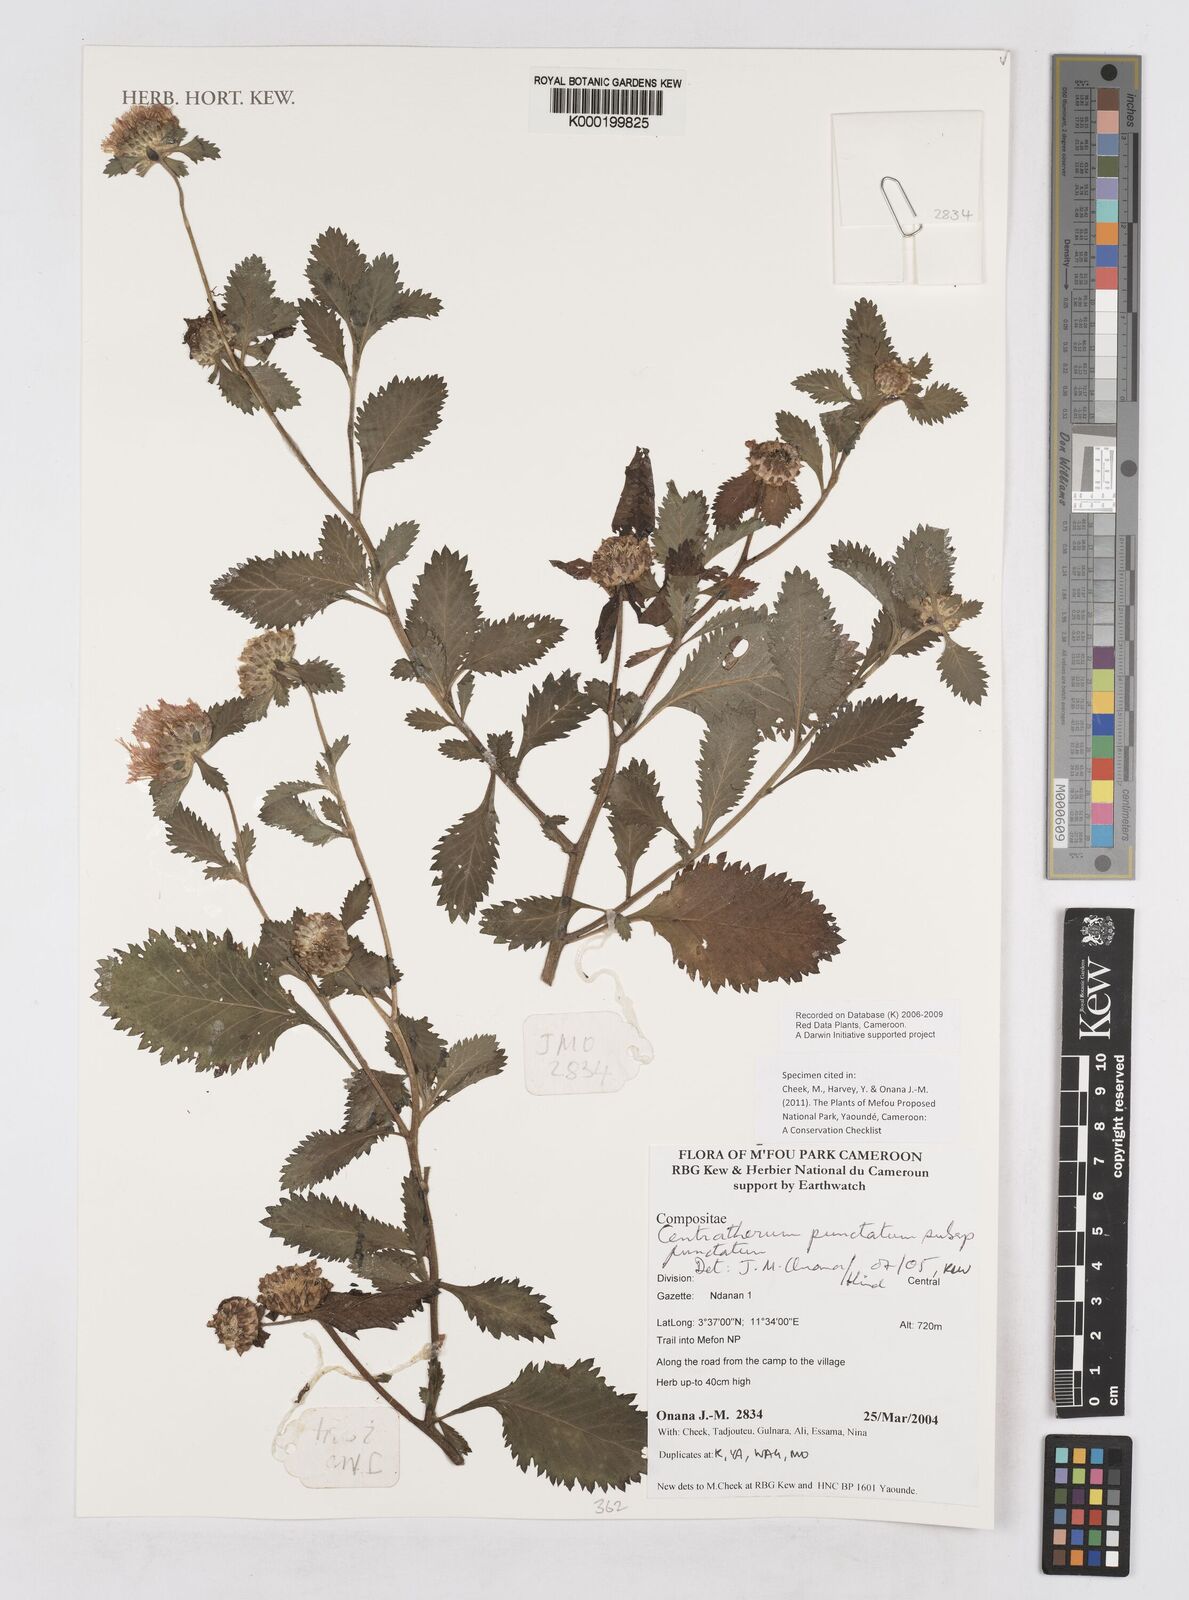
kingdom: Plantae
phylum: Tracheophyta
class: Magnoliopsida
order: Asterales
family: Asteraceae
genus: Centratherum
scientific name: Centratherum punctatum
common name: Larkdaisy
